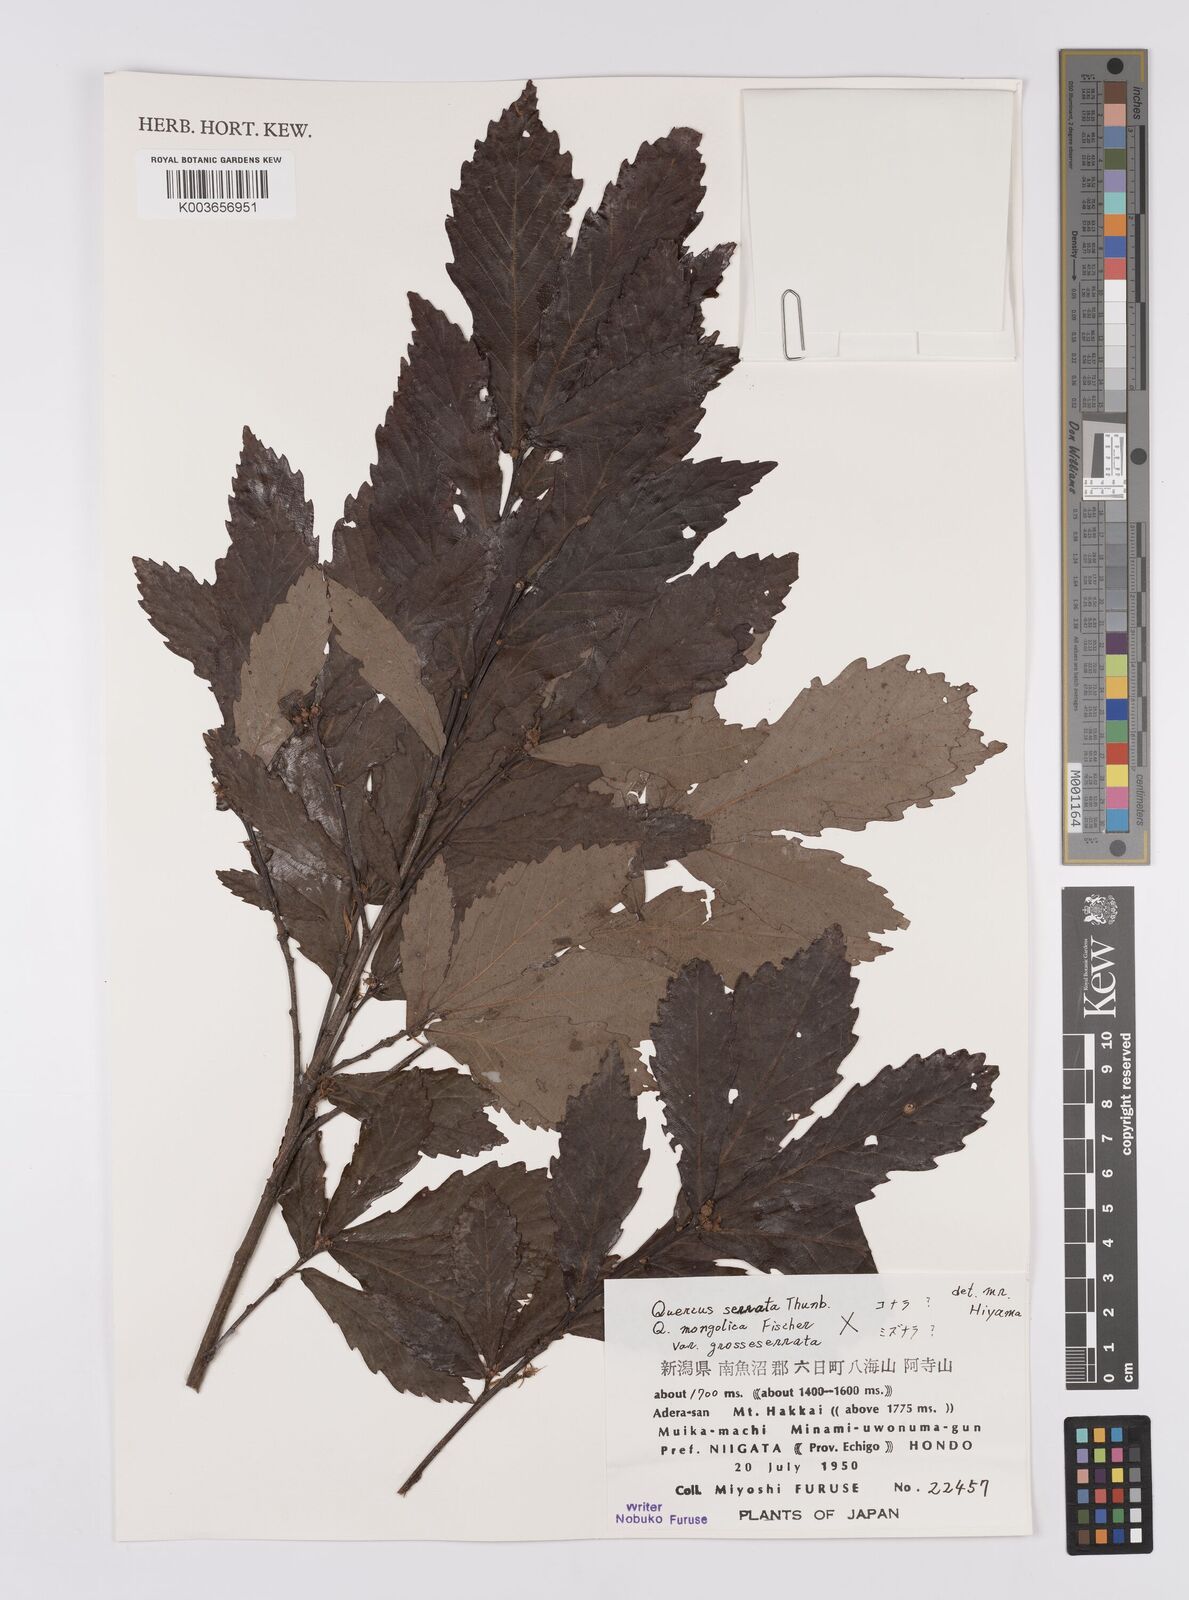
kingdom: Plantae
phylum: Tracheophyta
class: Magnoliopsida
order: Fagales
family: Fagaceae
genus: Quercus
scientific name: Quercus serrata
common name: Bao li
